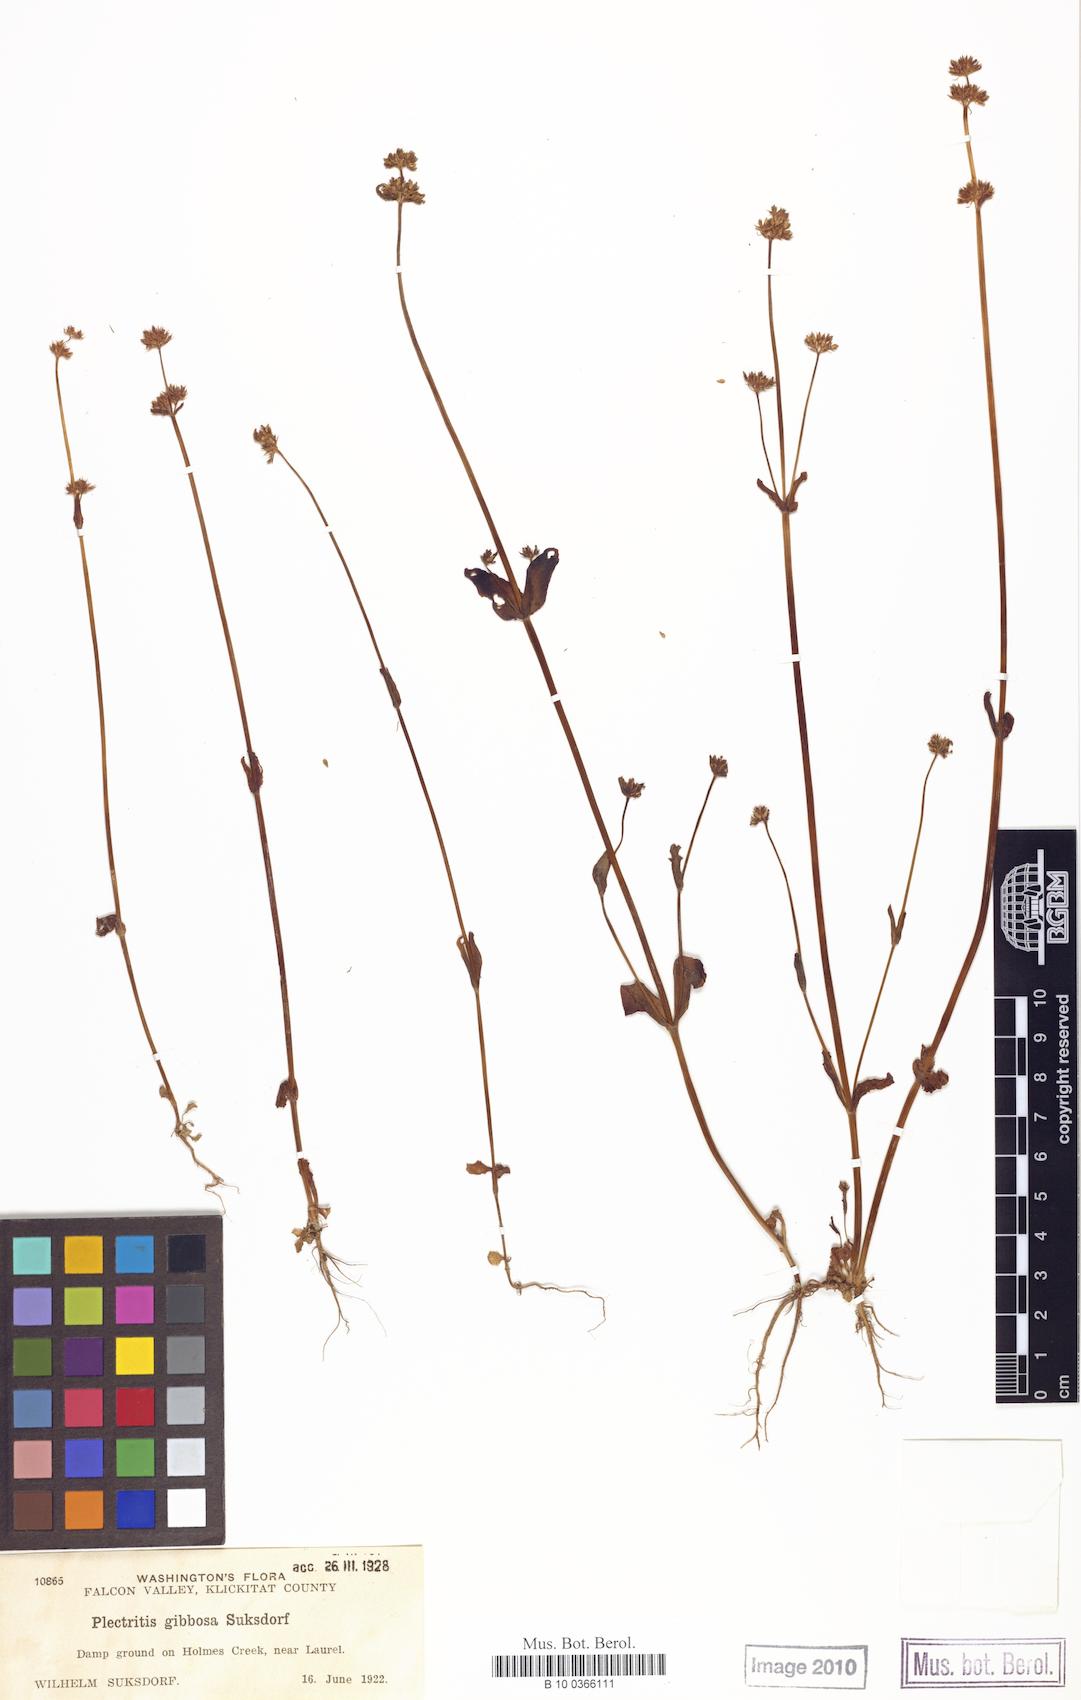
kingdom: Plantae
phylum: Tracheophyta
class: Magnoliopsida
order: Dipsacales
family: Caprifoliaceae
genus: Plectritis
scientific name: Plectritis congesta
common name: Pink plectritis
